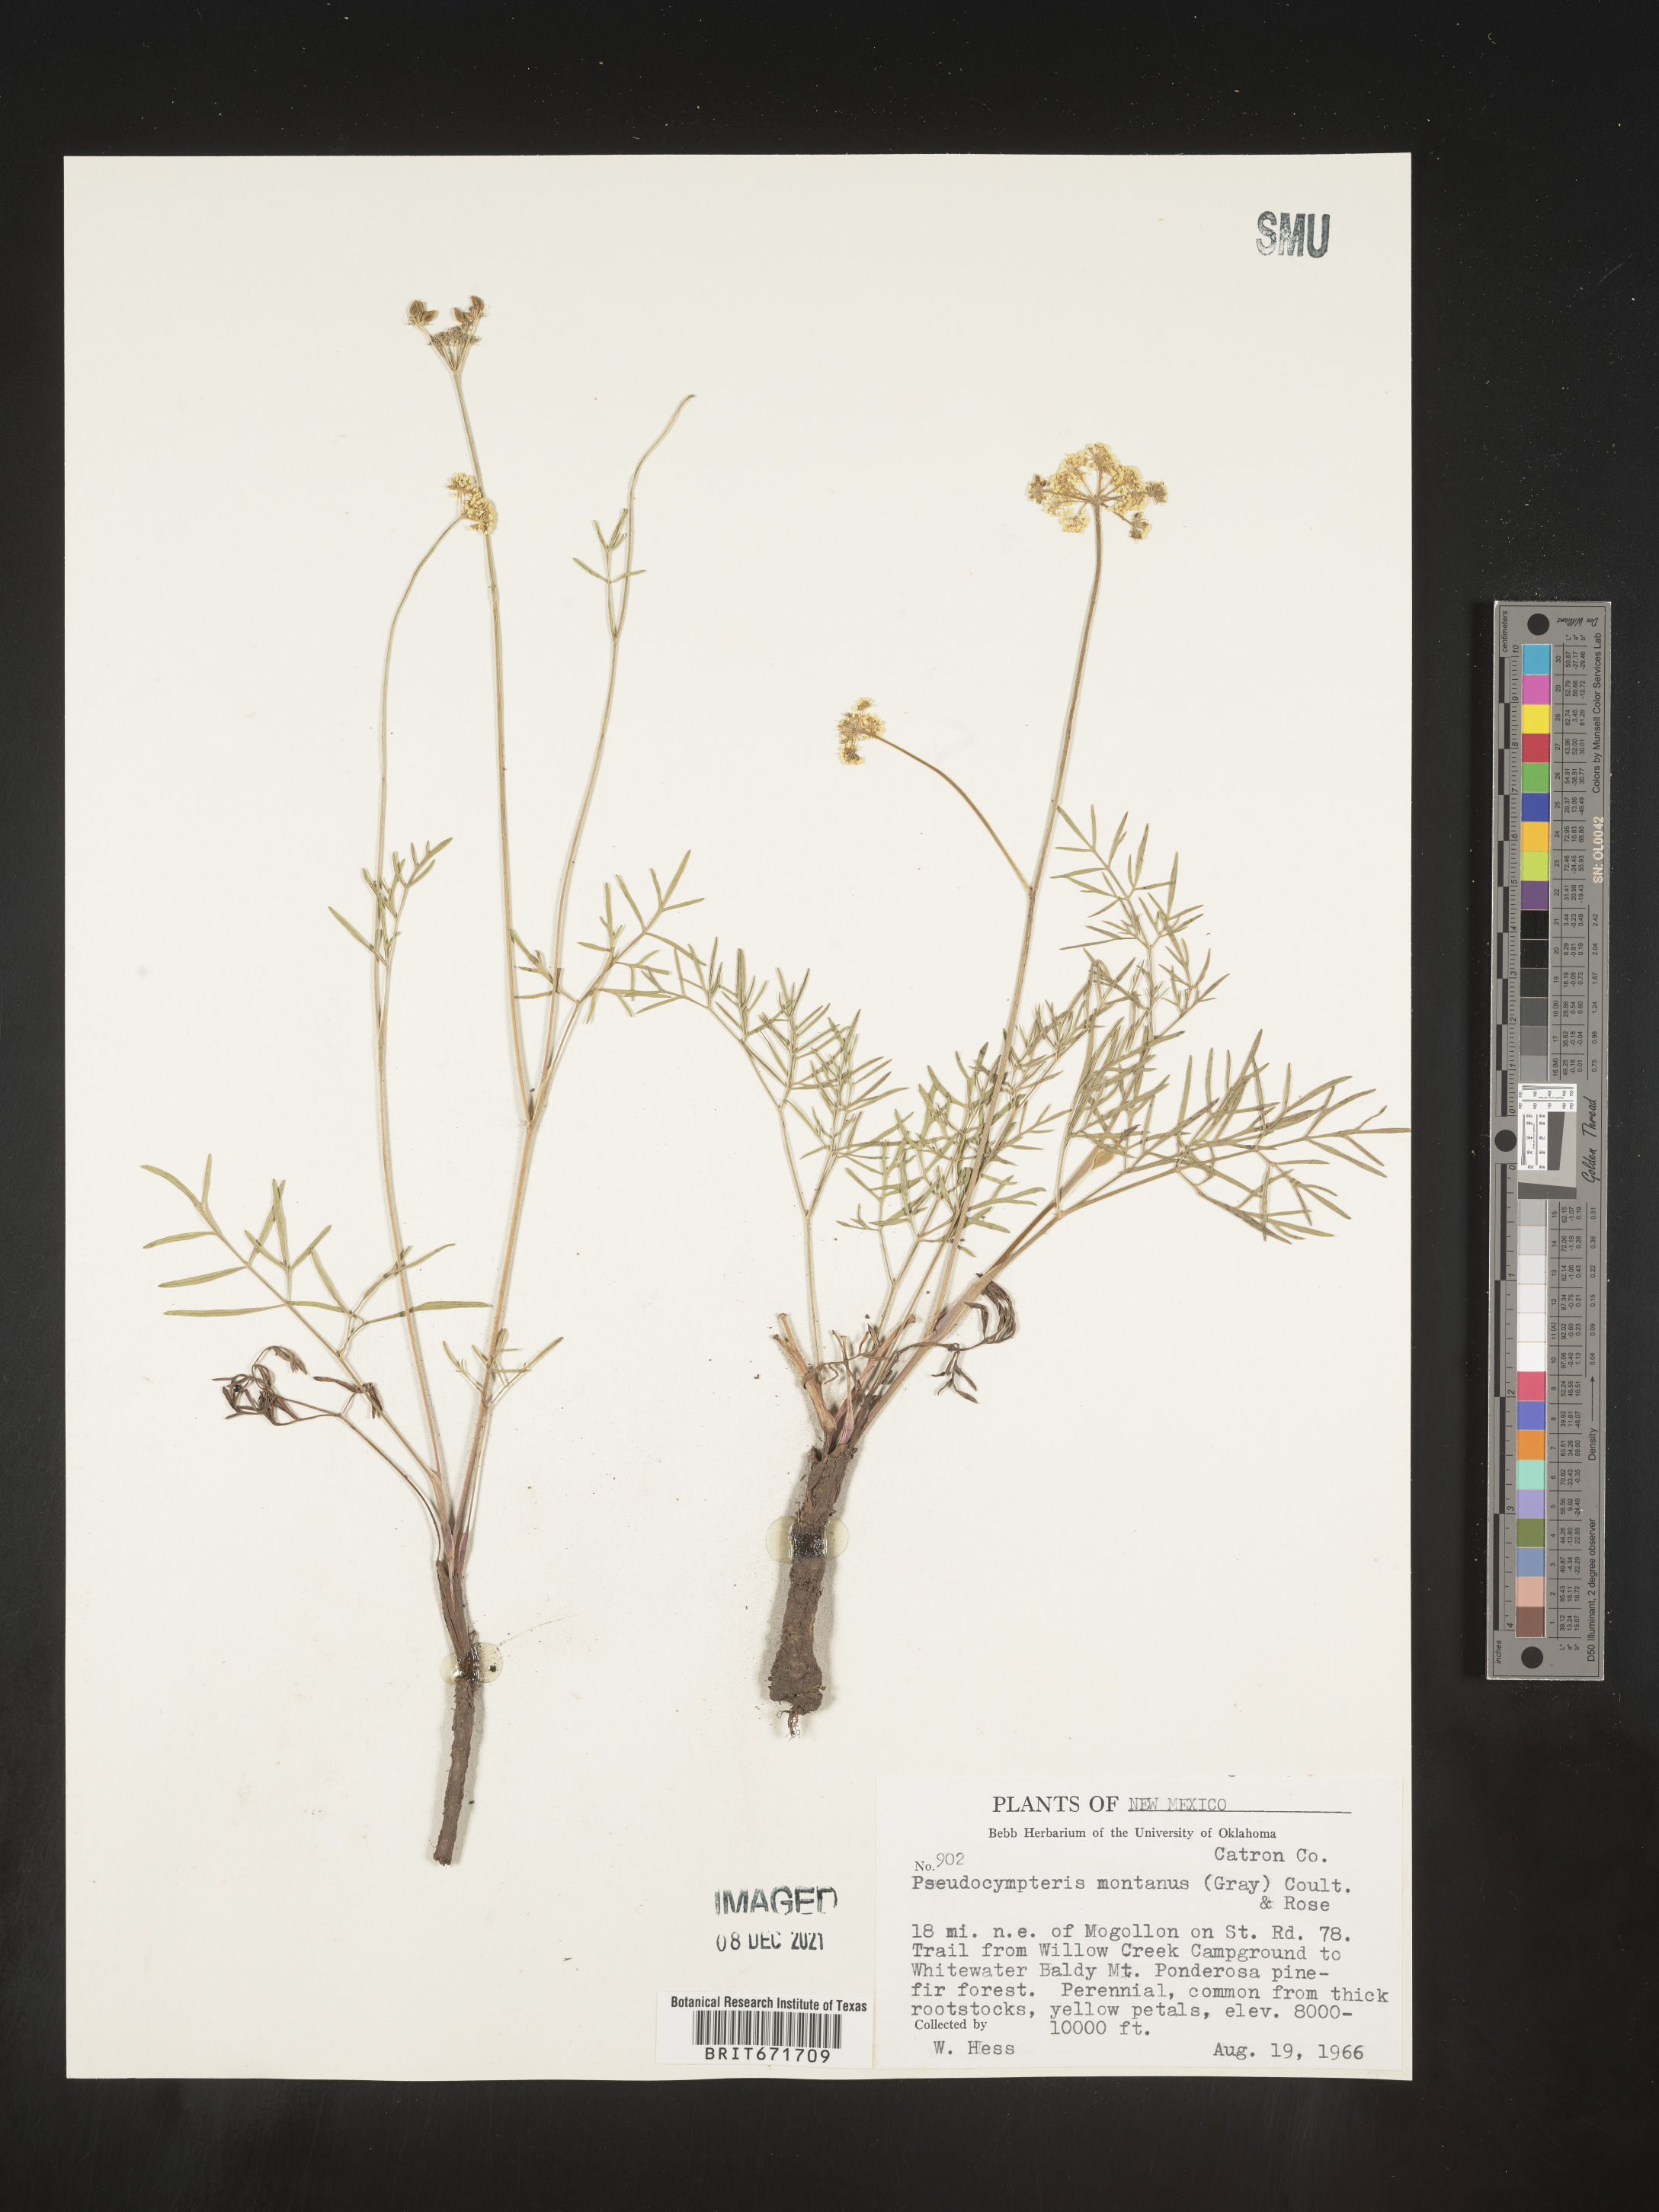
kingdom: Plantae
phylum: Tracheophyta
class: Magnoliopsida
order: Apiales
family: Apiaceae
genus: Cymopterus
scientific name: Cymopterus lemmonii
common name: Lemmon's spring-parsley
